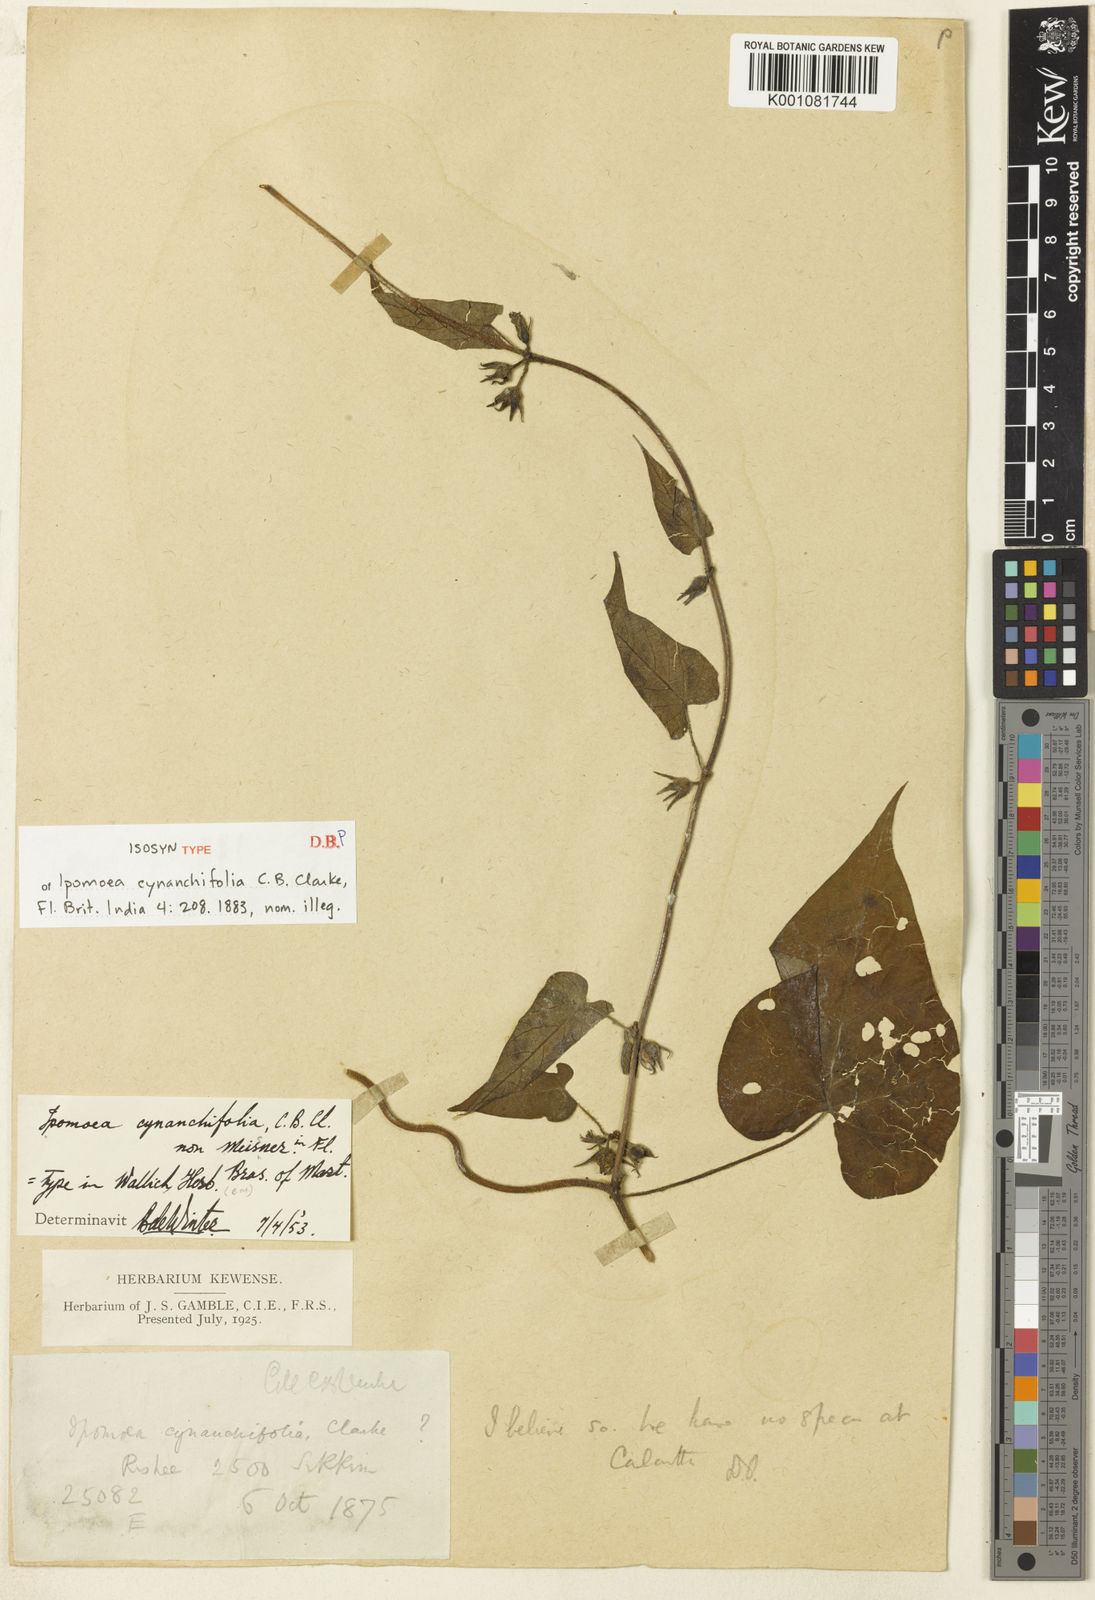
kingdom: Plantae
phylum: Tracheophyta
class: Magnoliopsida
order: Solanales
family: Convolvulaceae
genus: Ipomoea
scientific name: Ipomoea biflora
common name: Bellvine
